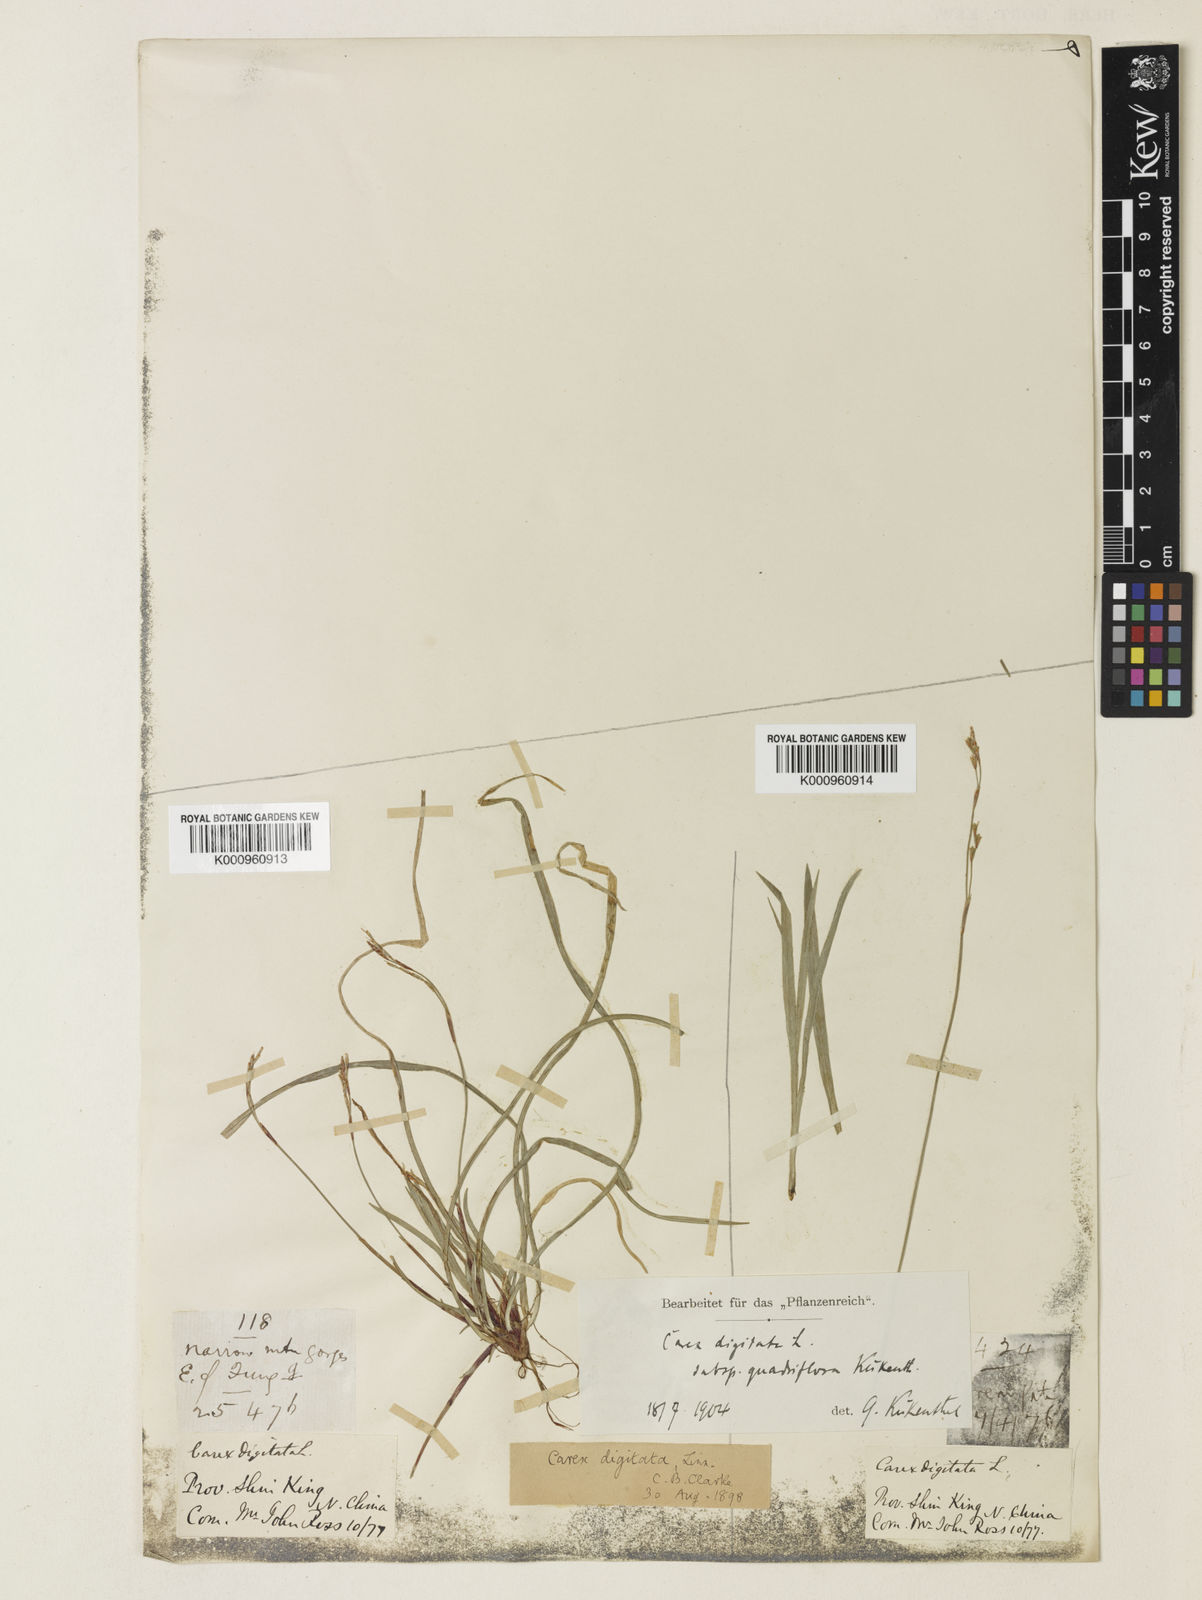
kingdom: Plantae
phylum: Tracheophyta
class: Liliopsida
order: Poales
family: Cyperaceae
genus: Carex
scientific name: Carex digitata
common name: Fingered sedge
